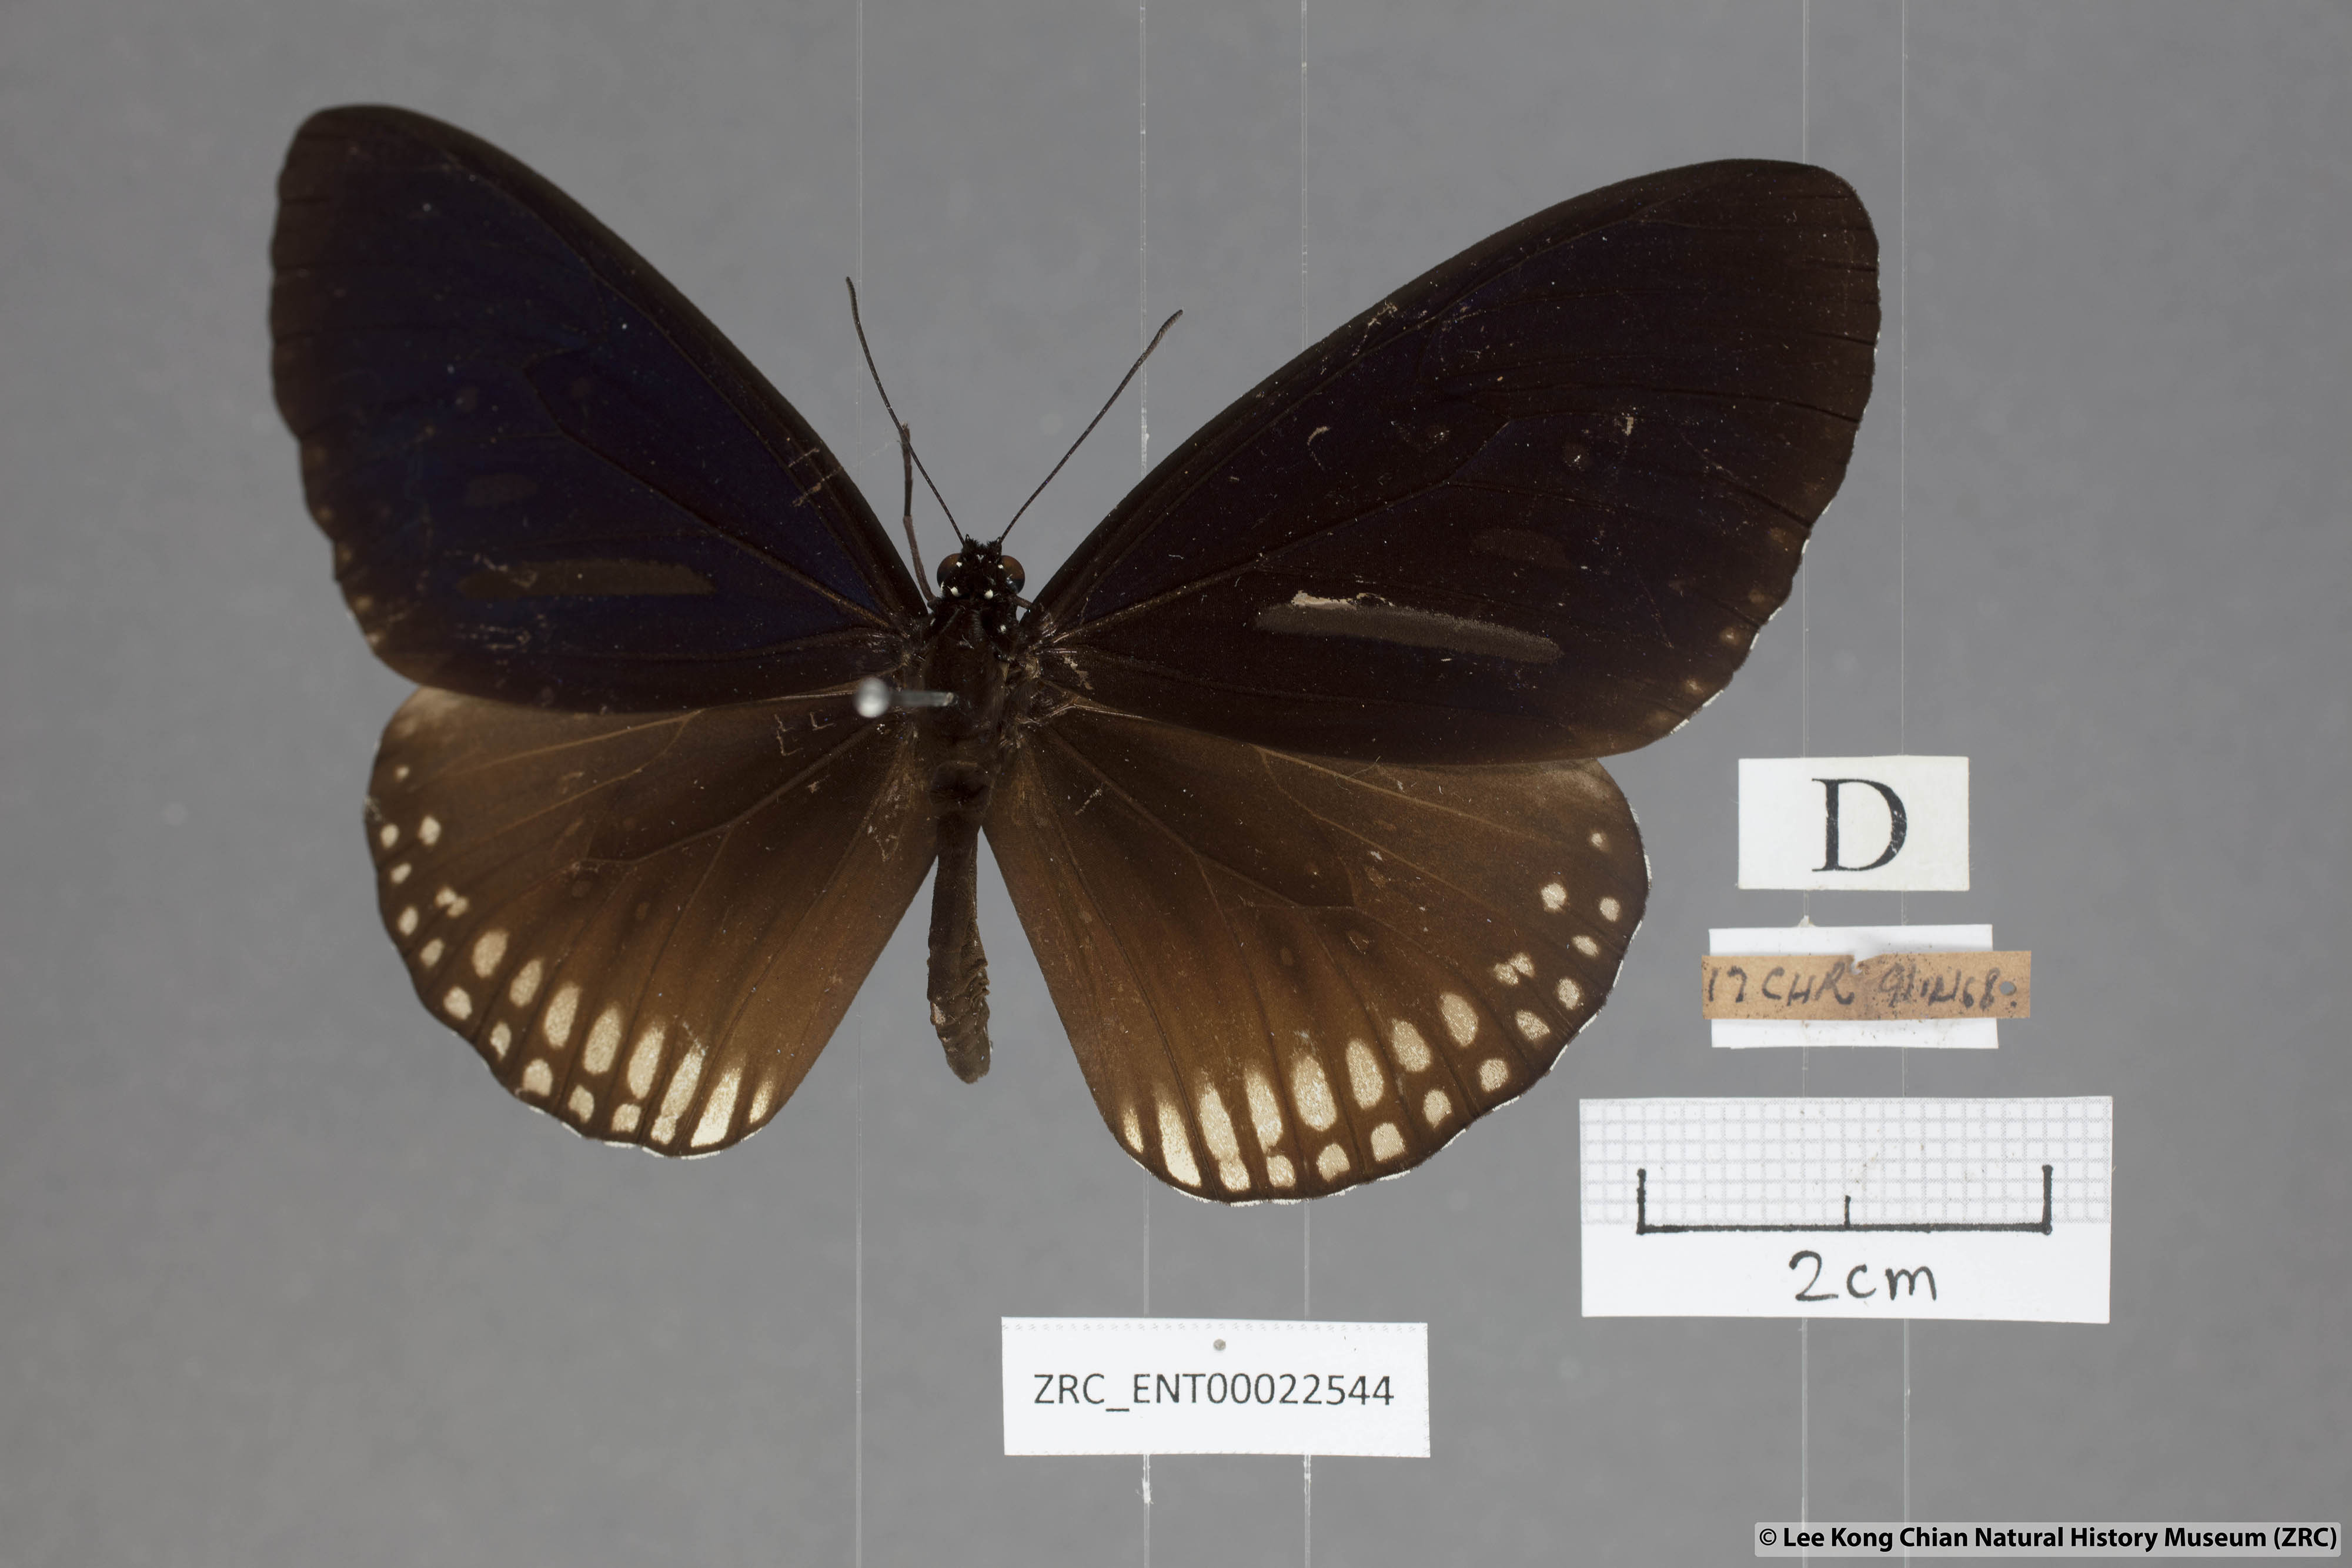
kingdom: Animalia
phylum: Arthropoda
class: Insecta
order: Lepidoptera
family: Nymphalidae
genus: Euploea
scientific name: Euploea algea
